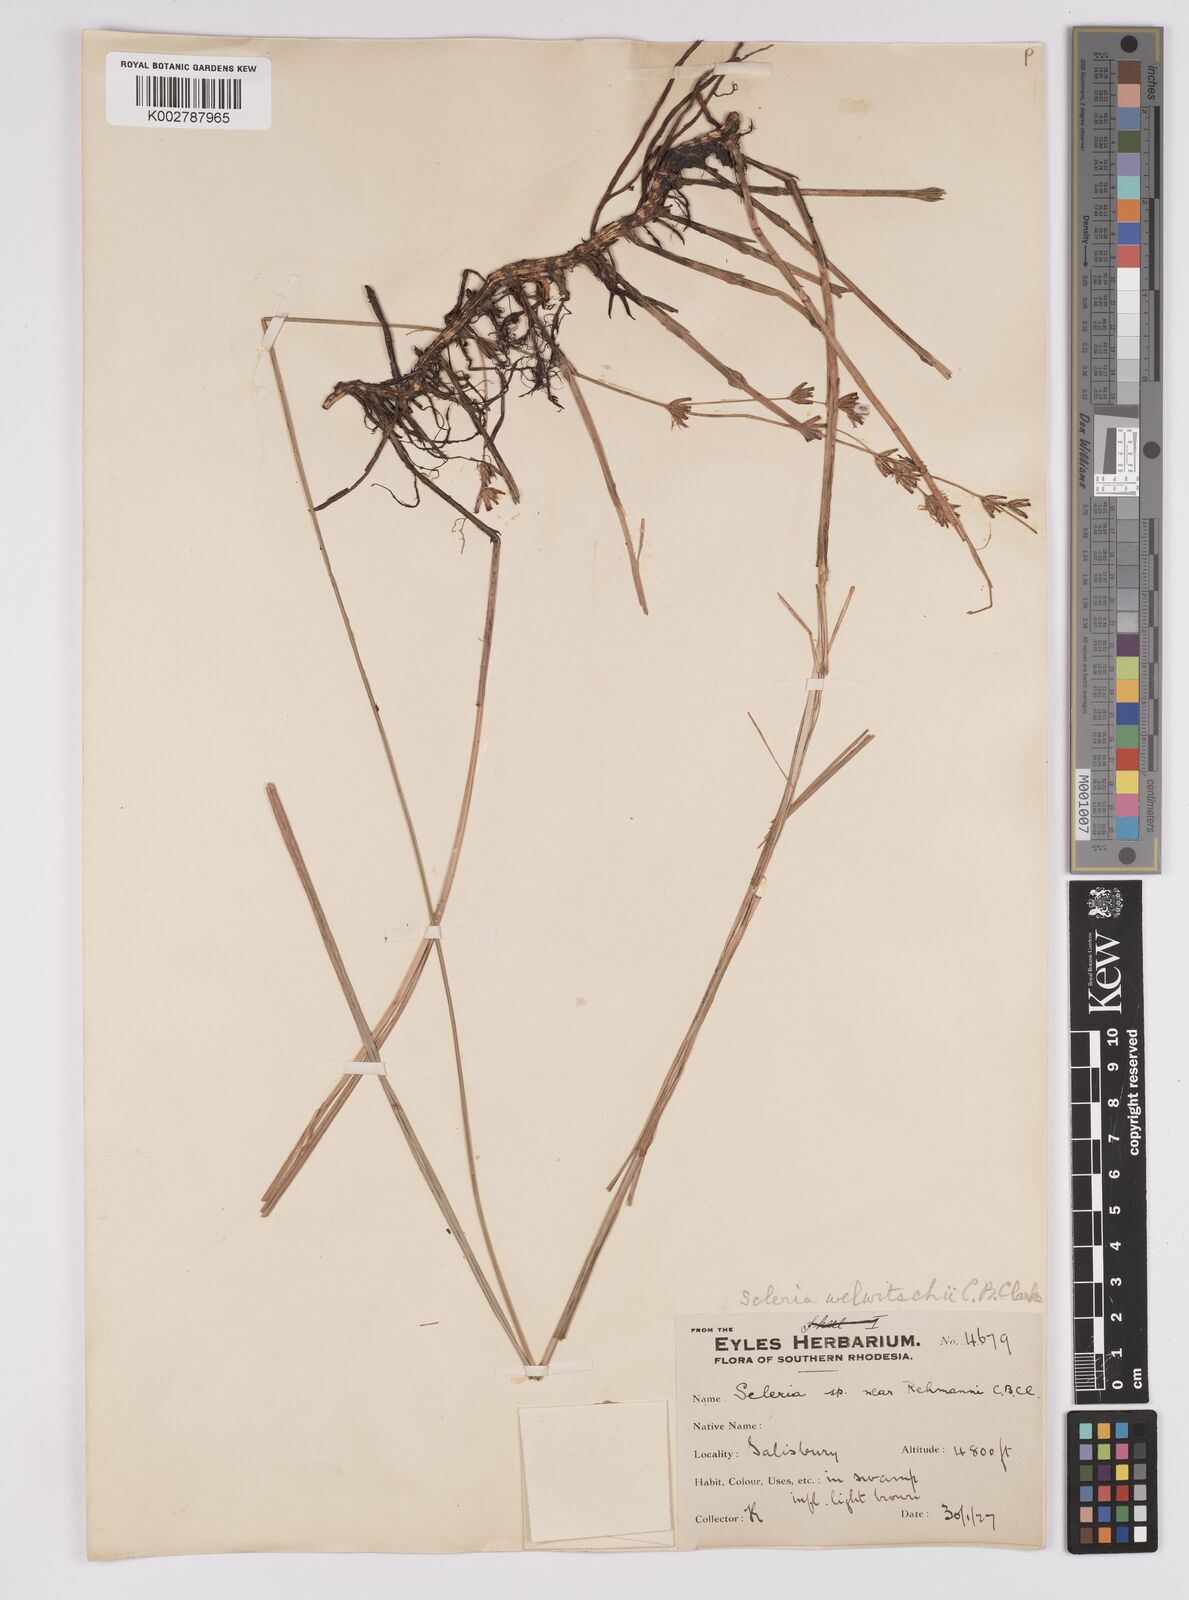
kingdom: Plantae
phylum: Tracheophyta
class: Liliopsida
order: Poales
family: Cyperaceae
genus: Scleria
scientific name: Scleria welwitschii
